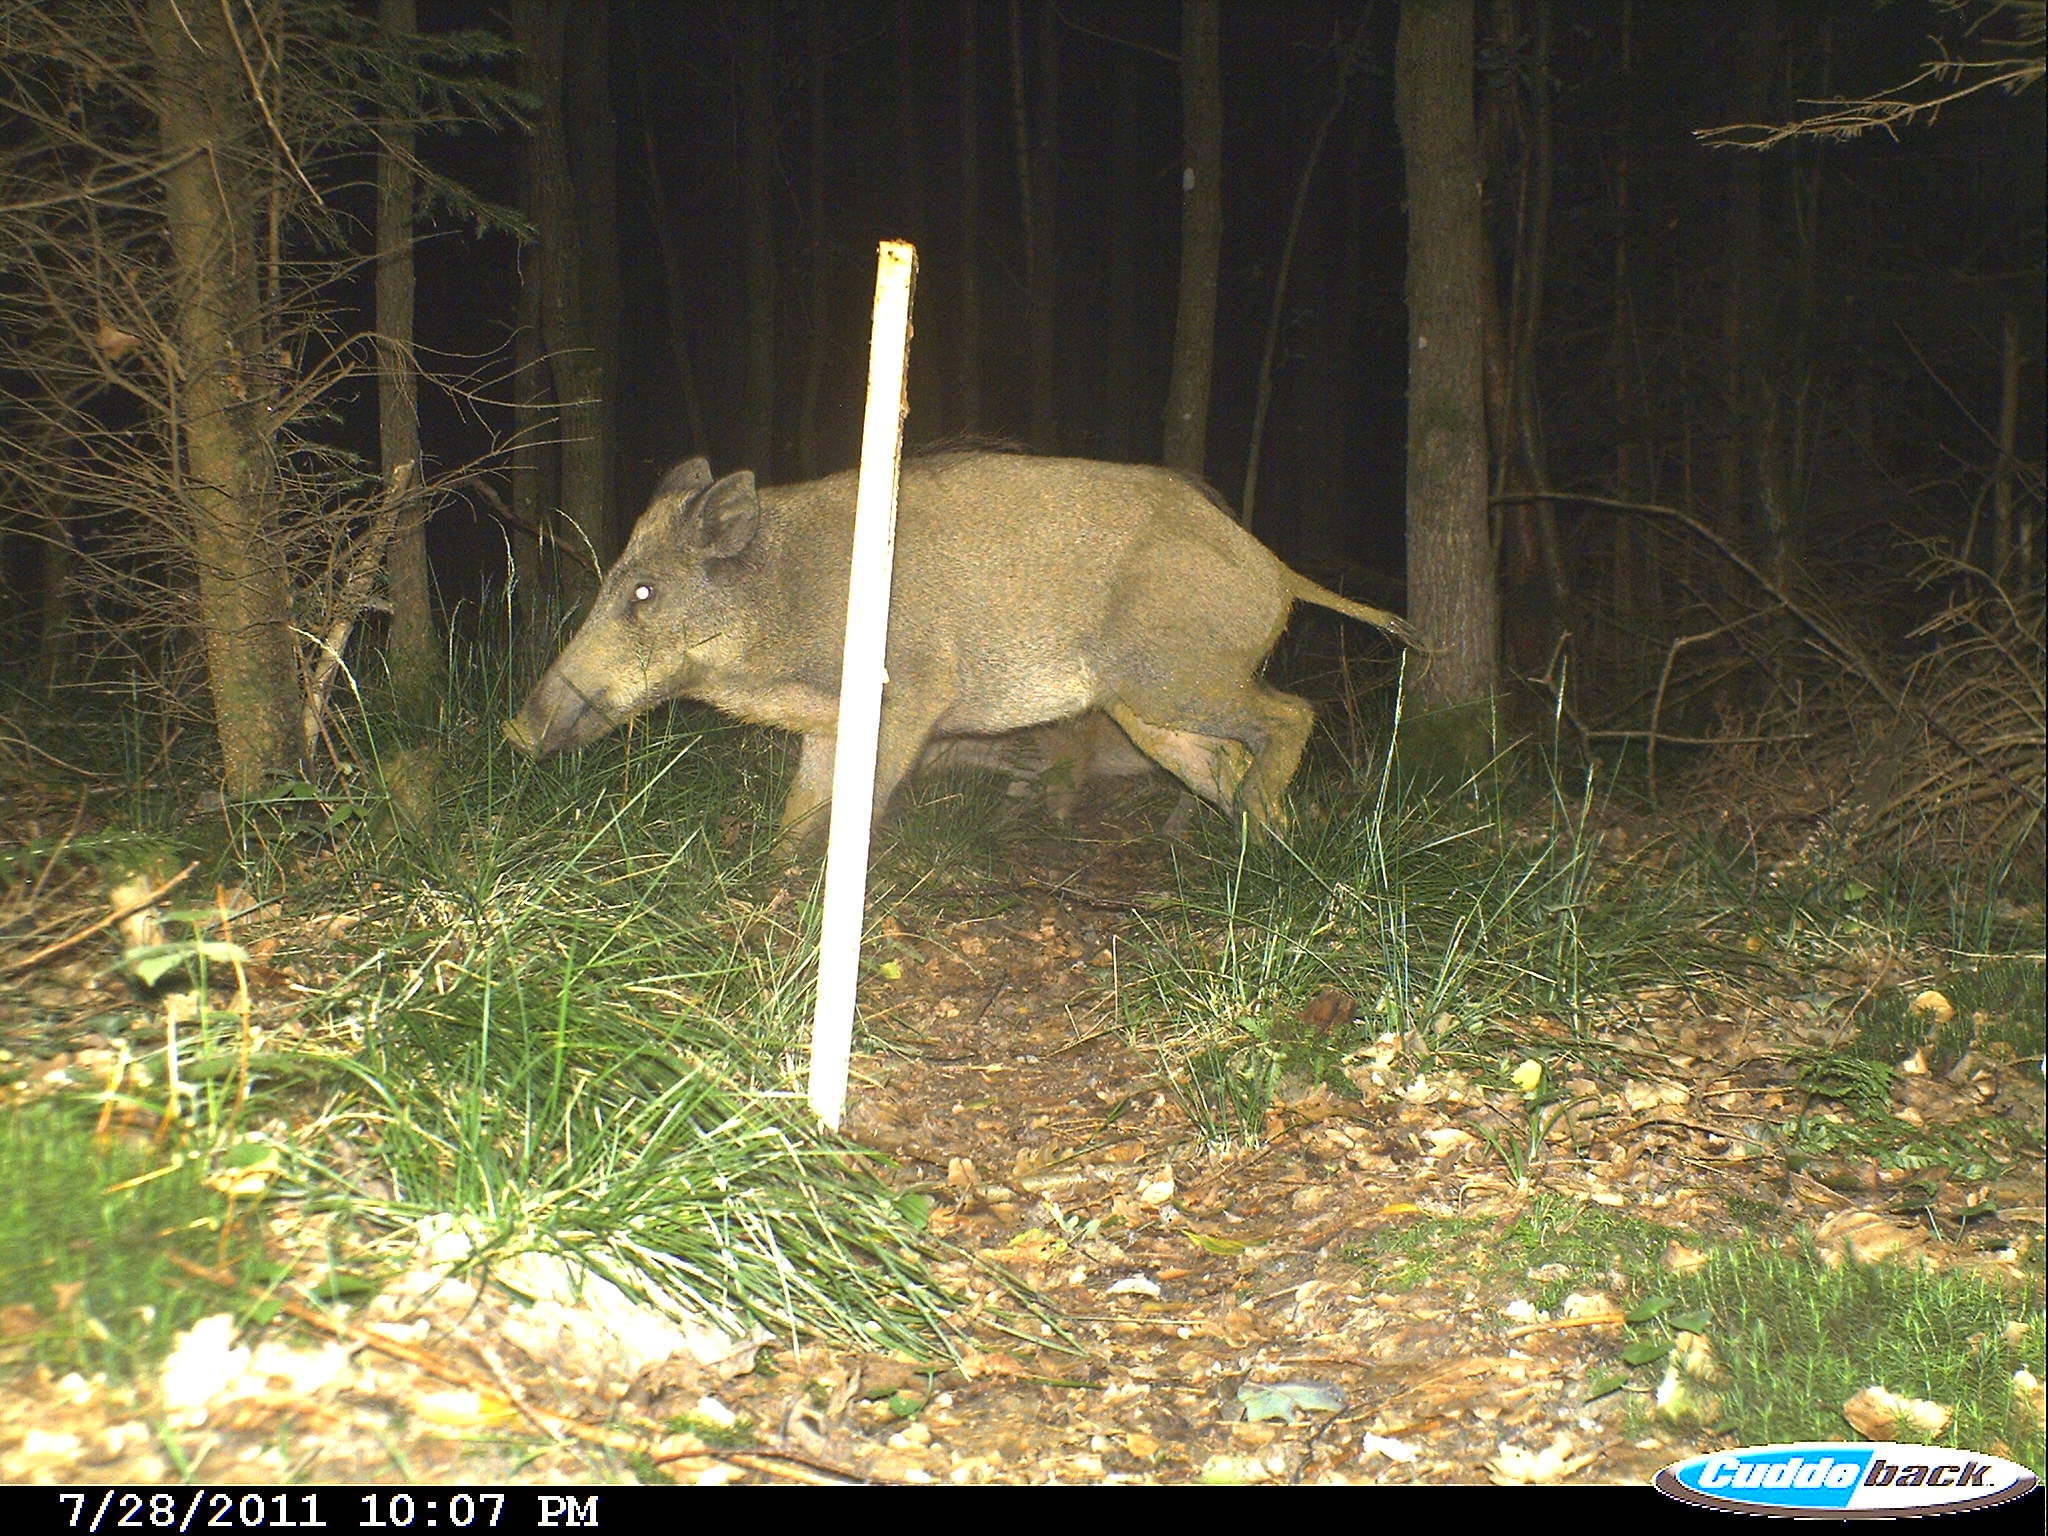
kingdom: Animalia
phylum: Chordata
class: Mammalia
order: Artiodactyla
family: Suidae
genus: Sus
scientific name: Sus scrofa
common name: Wild boar
